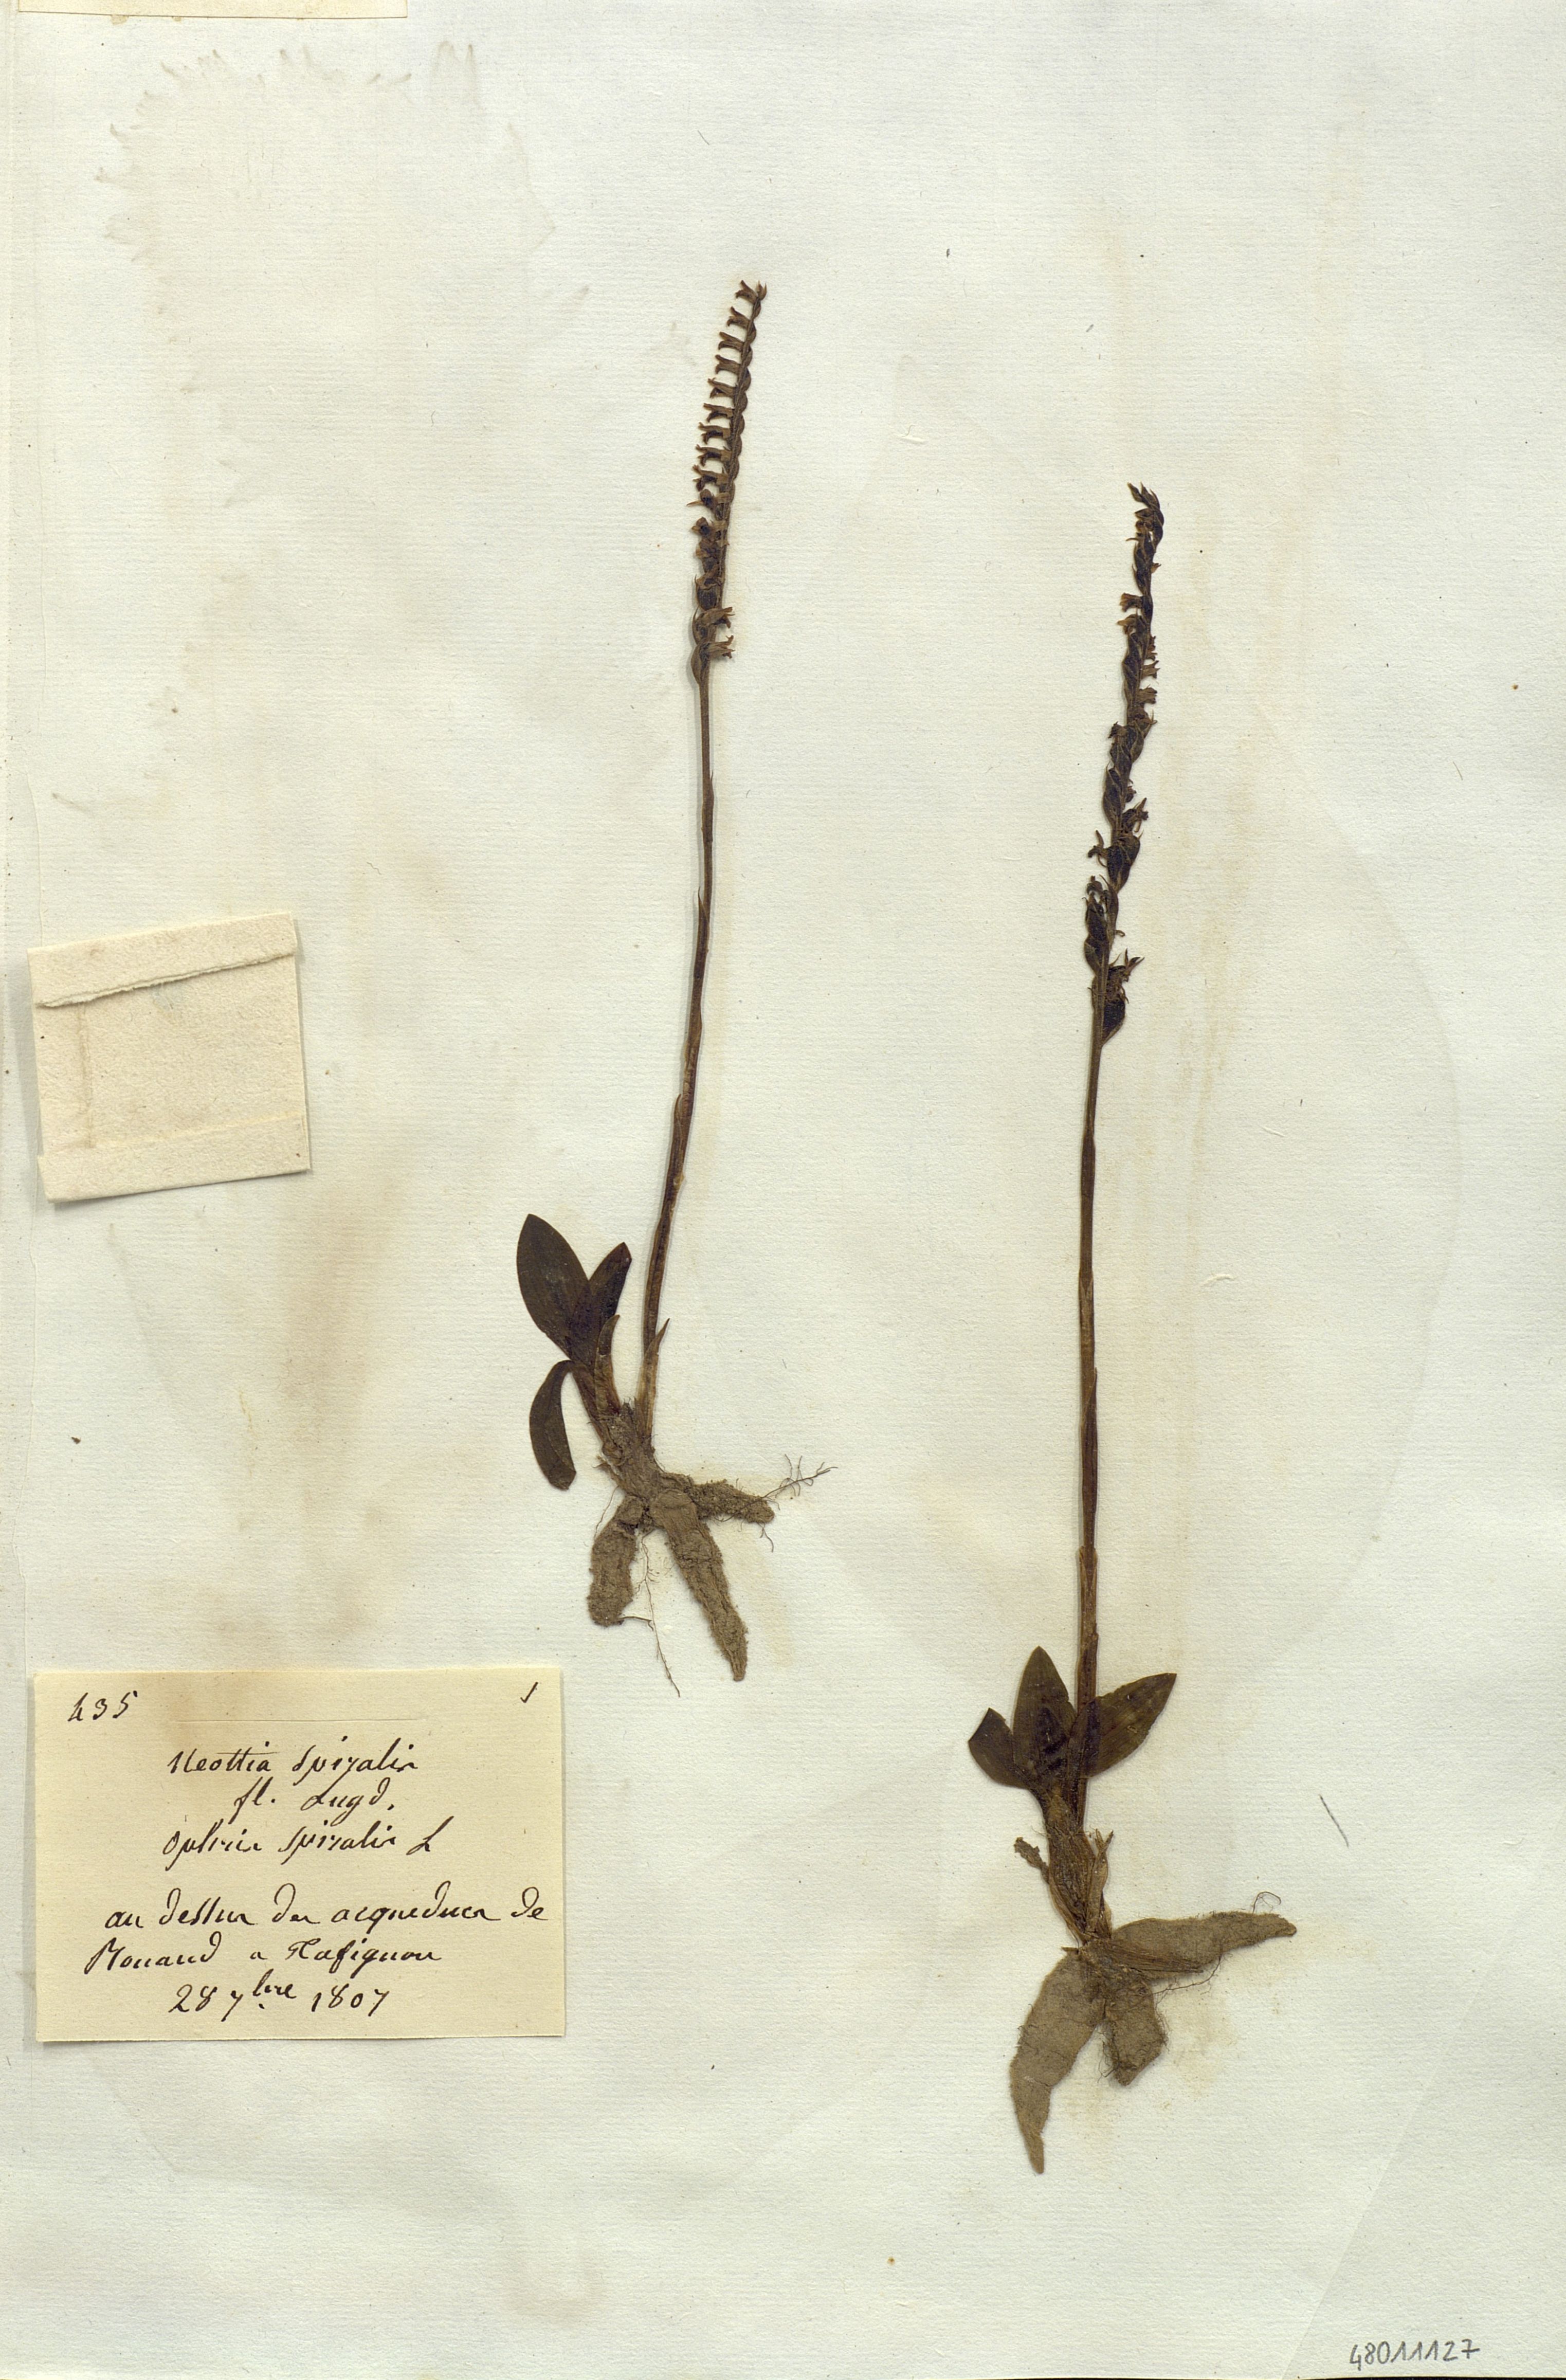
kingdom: Plantae
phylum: Tracheophyta
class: Liliopsida
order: Asparagales
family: Orchidaceae
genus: Spiranthes
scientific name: Spiranthes spiralis
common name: Autumn lady's-tresses
